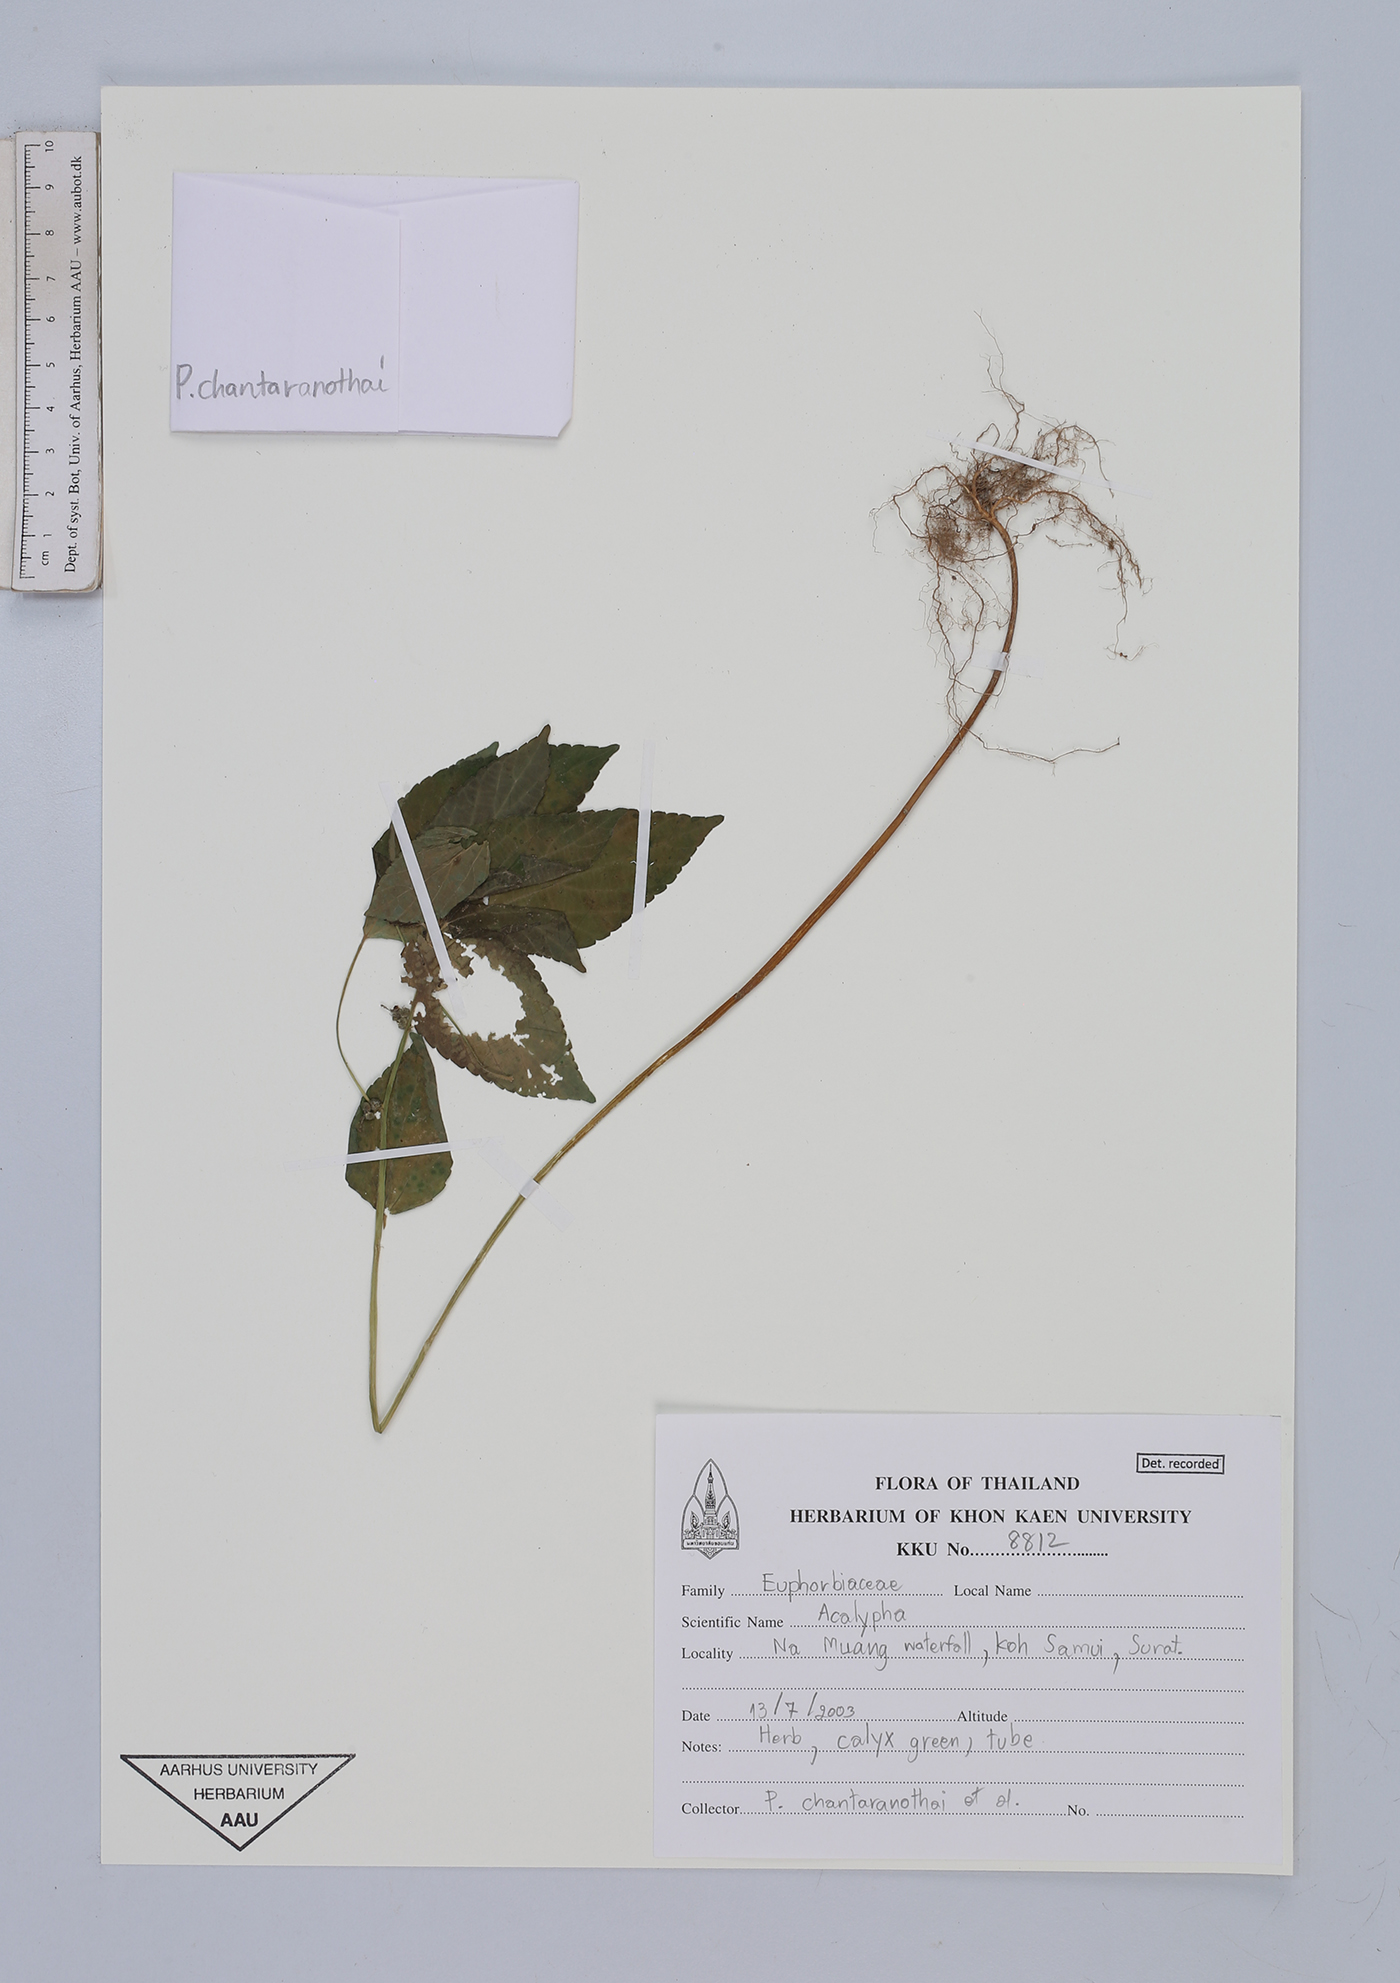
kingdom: Plantae
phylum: Tracheophyta
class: Magnoliopsida
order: Malpighiales
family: Euphorbiaceae
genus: Acalypha
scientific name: Acalypha
